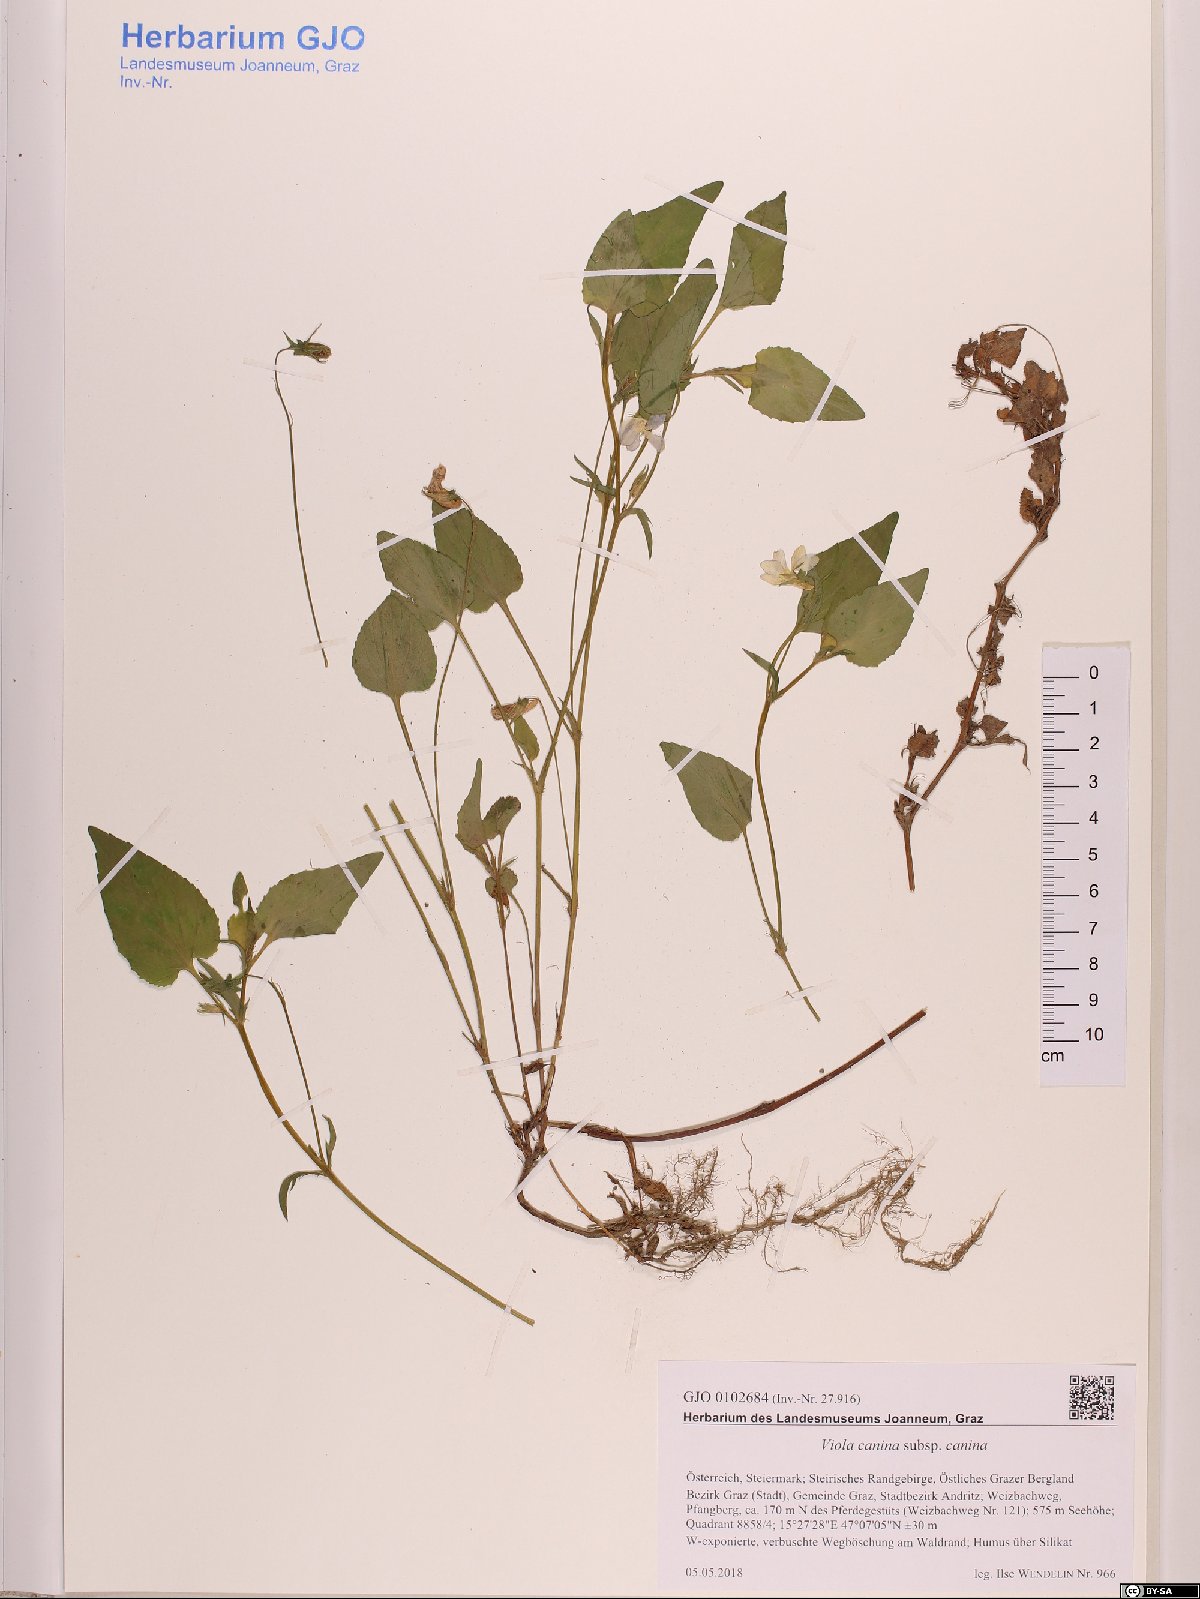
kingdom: Plantae
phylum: Tracheophyta
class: Magnoliopsida
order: Malpighiales
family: Violaceae
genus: Viola
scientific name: Viola canina
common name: Heath dog-violet
